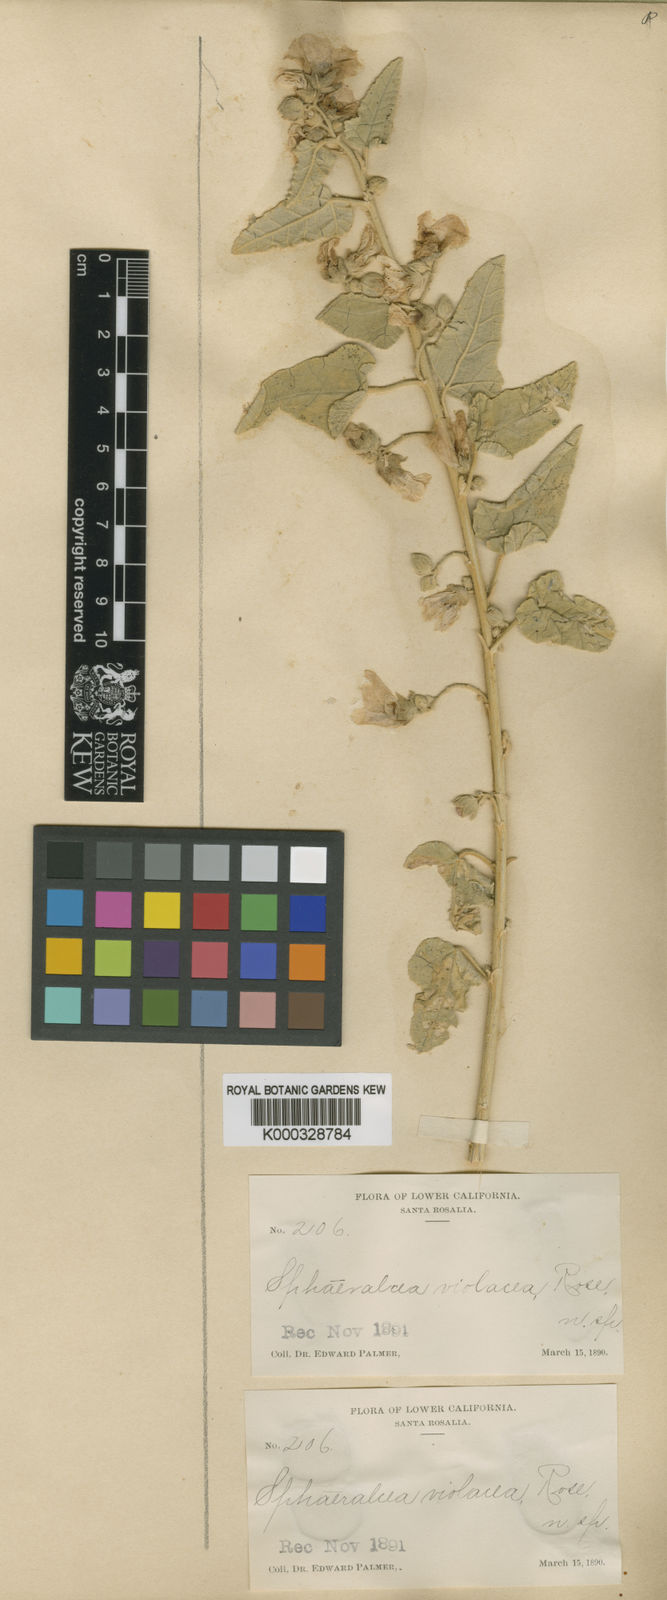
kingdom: Plantae
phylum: Tracheophyta
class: Magnoliopsida
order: Malvales
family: Malvaceae
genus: Sphaeralcea
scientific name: Sphaeralcea axillaris
